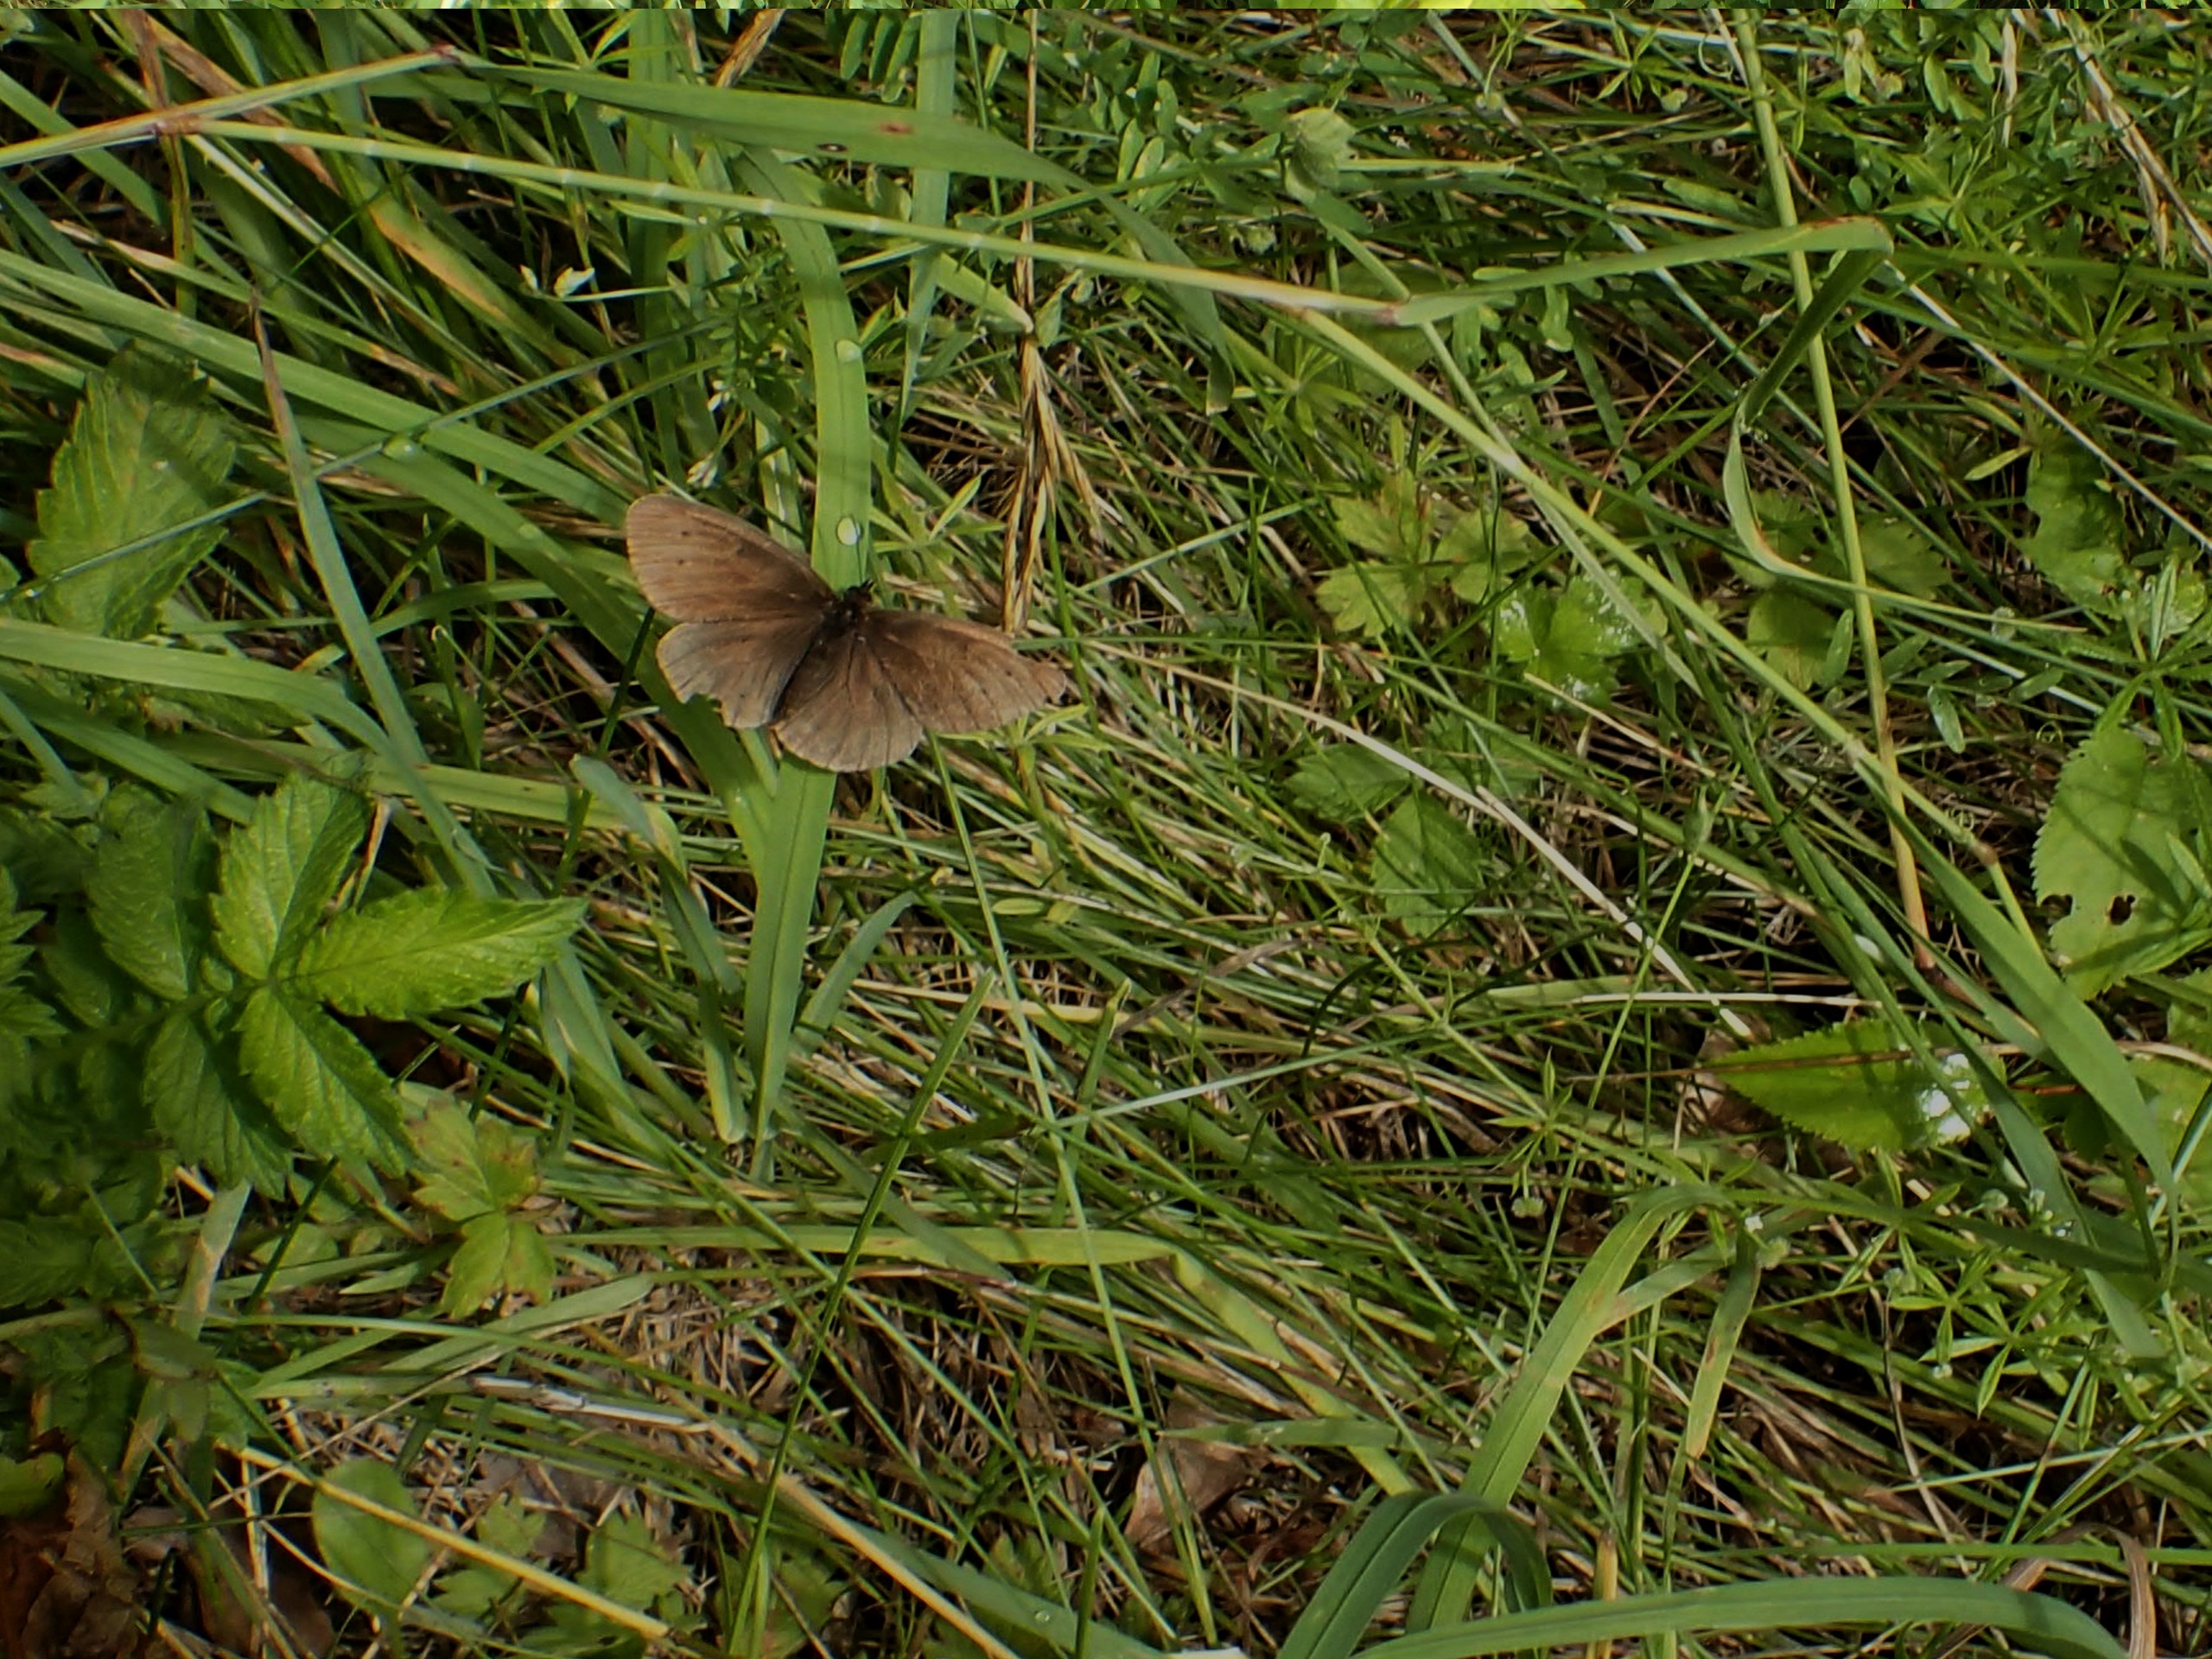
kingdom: Animalia
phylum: Arthropoda
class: Insecta
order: Lepidoptera
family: Nymphalidae
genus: Aphantopus
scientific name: Aphantopus hyperantus
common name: Engrandøje
